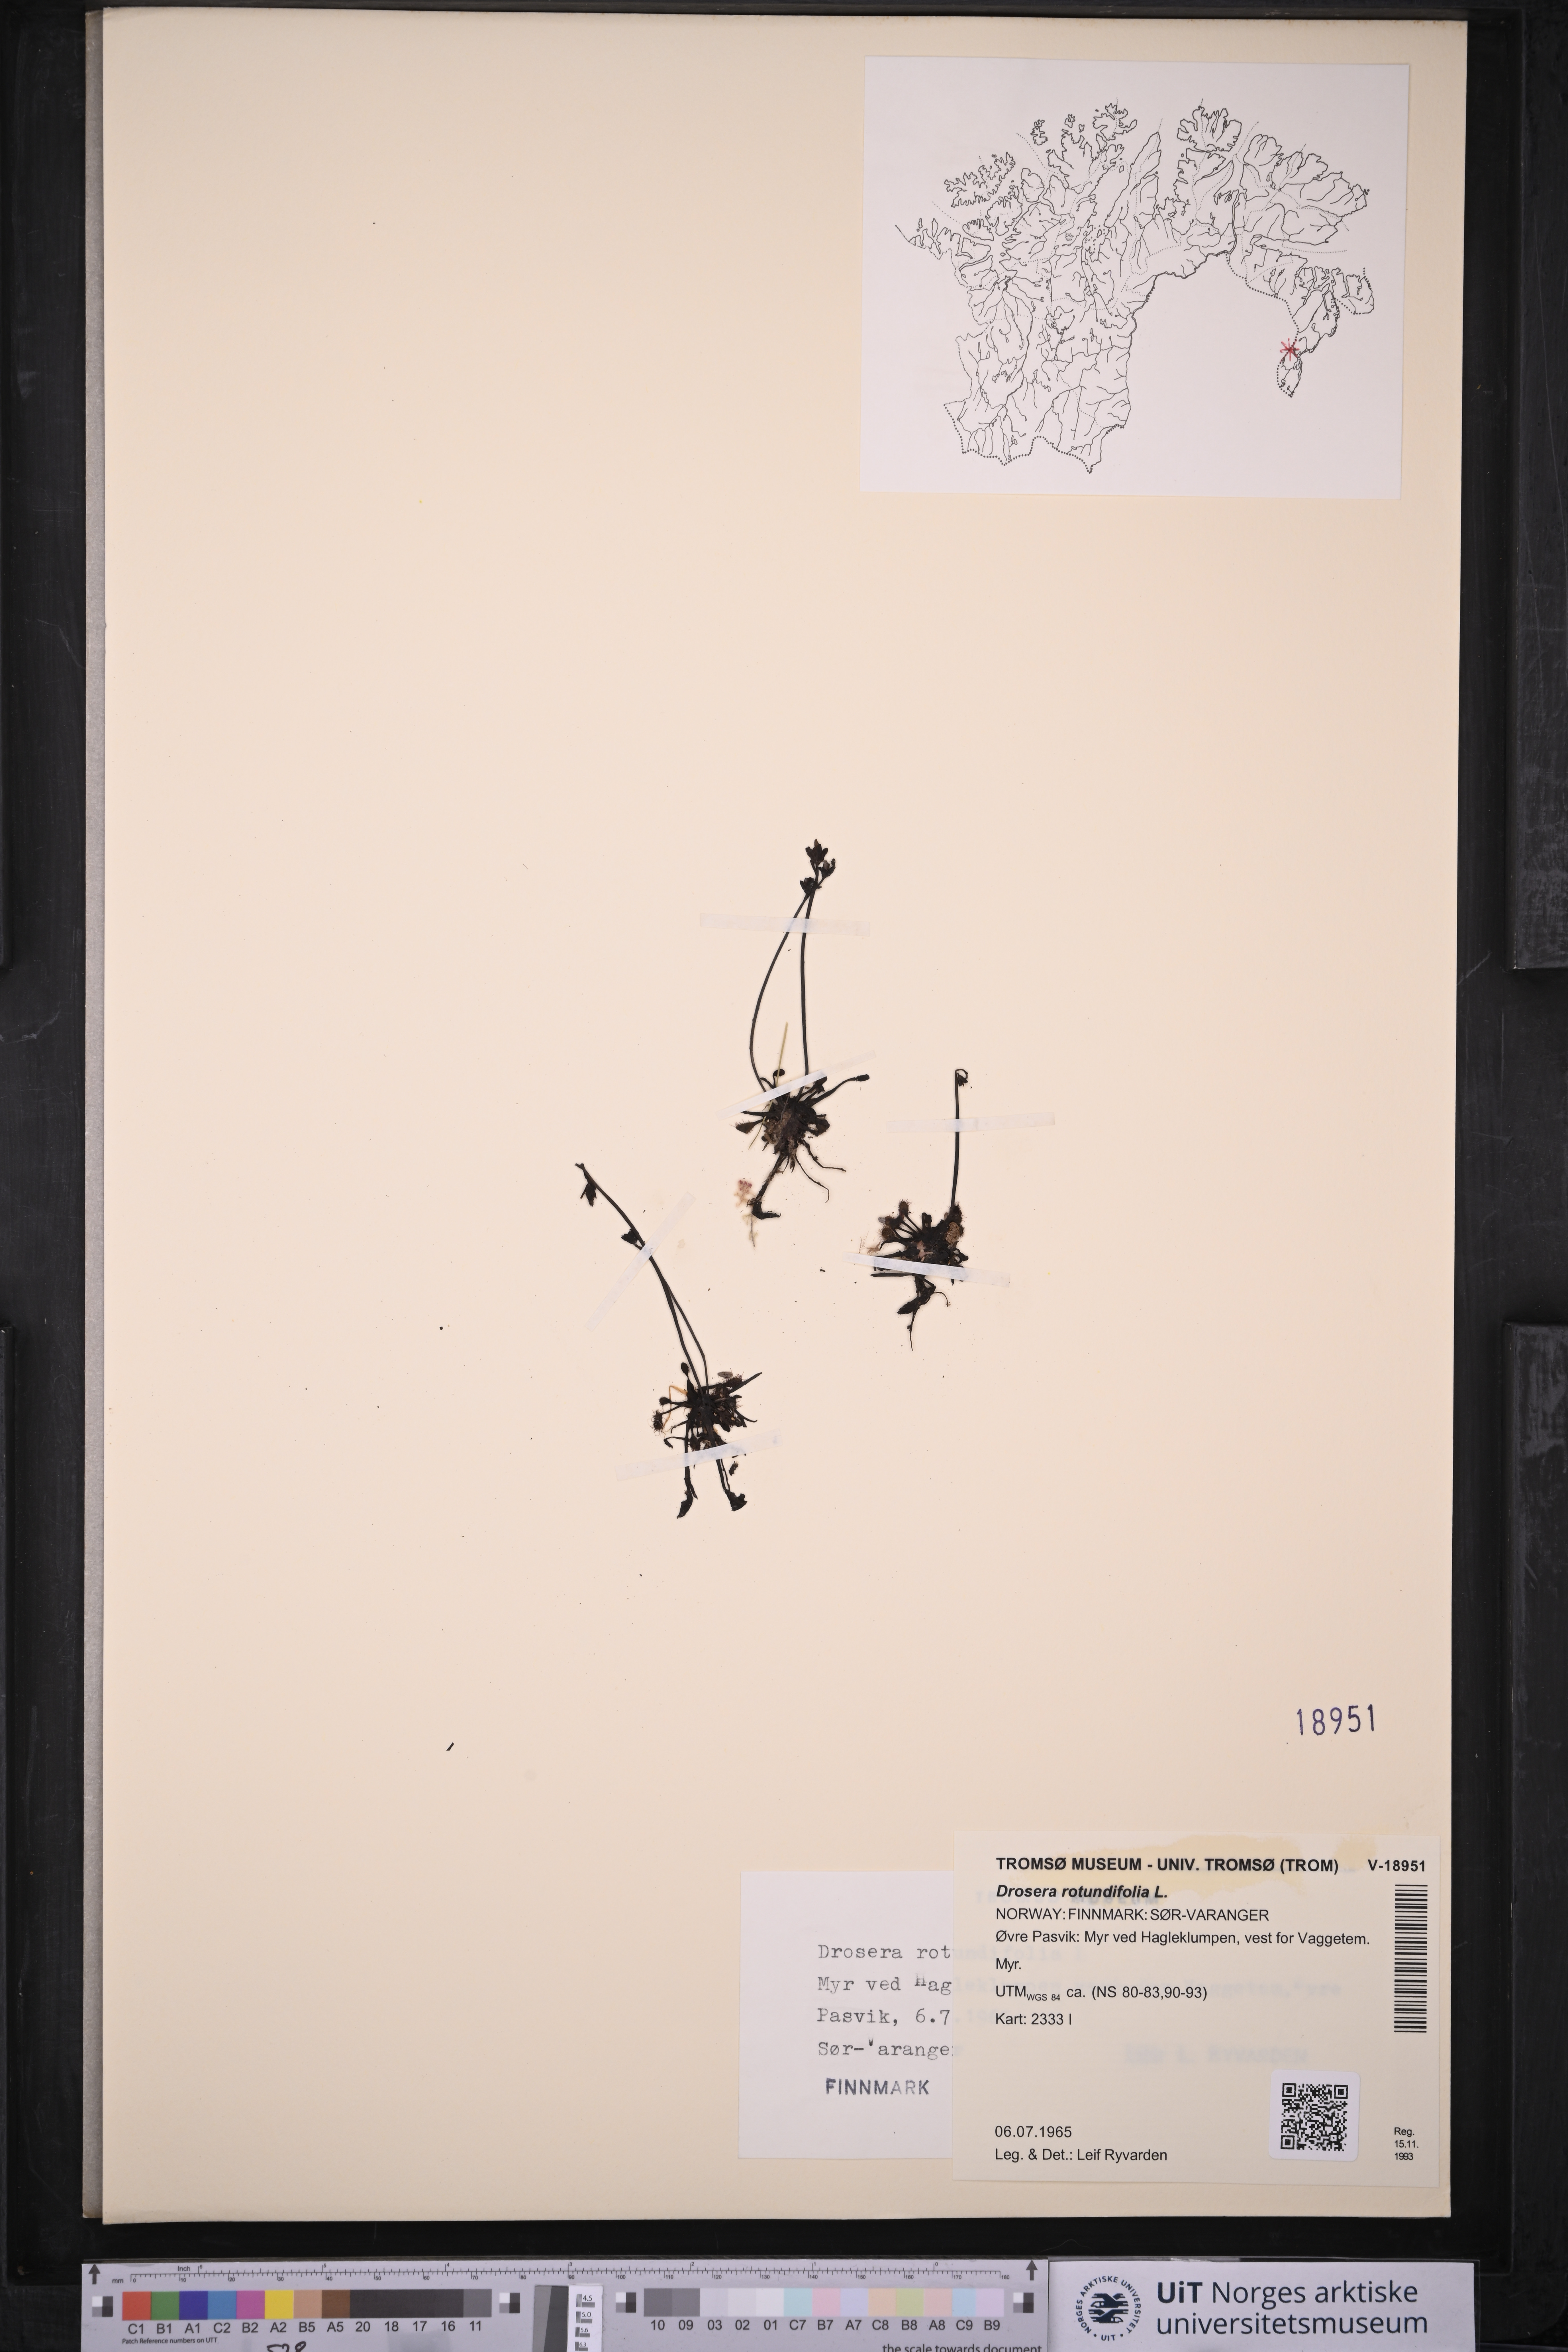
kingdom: Plantae
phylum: Tracheophyta
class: Magnoliopsida
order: Caryophyllales
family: Droseraceae
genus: Drosera
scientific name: Drosera rotundifolia
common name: Round-leaved sundew
